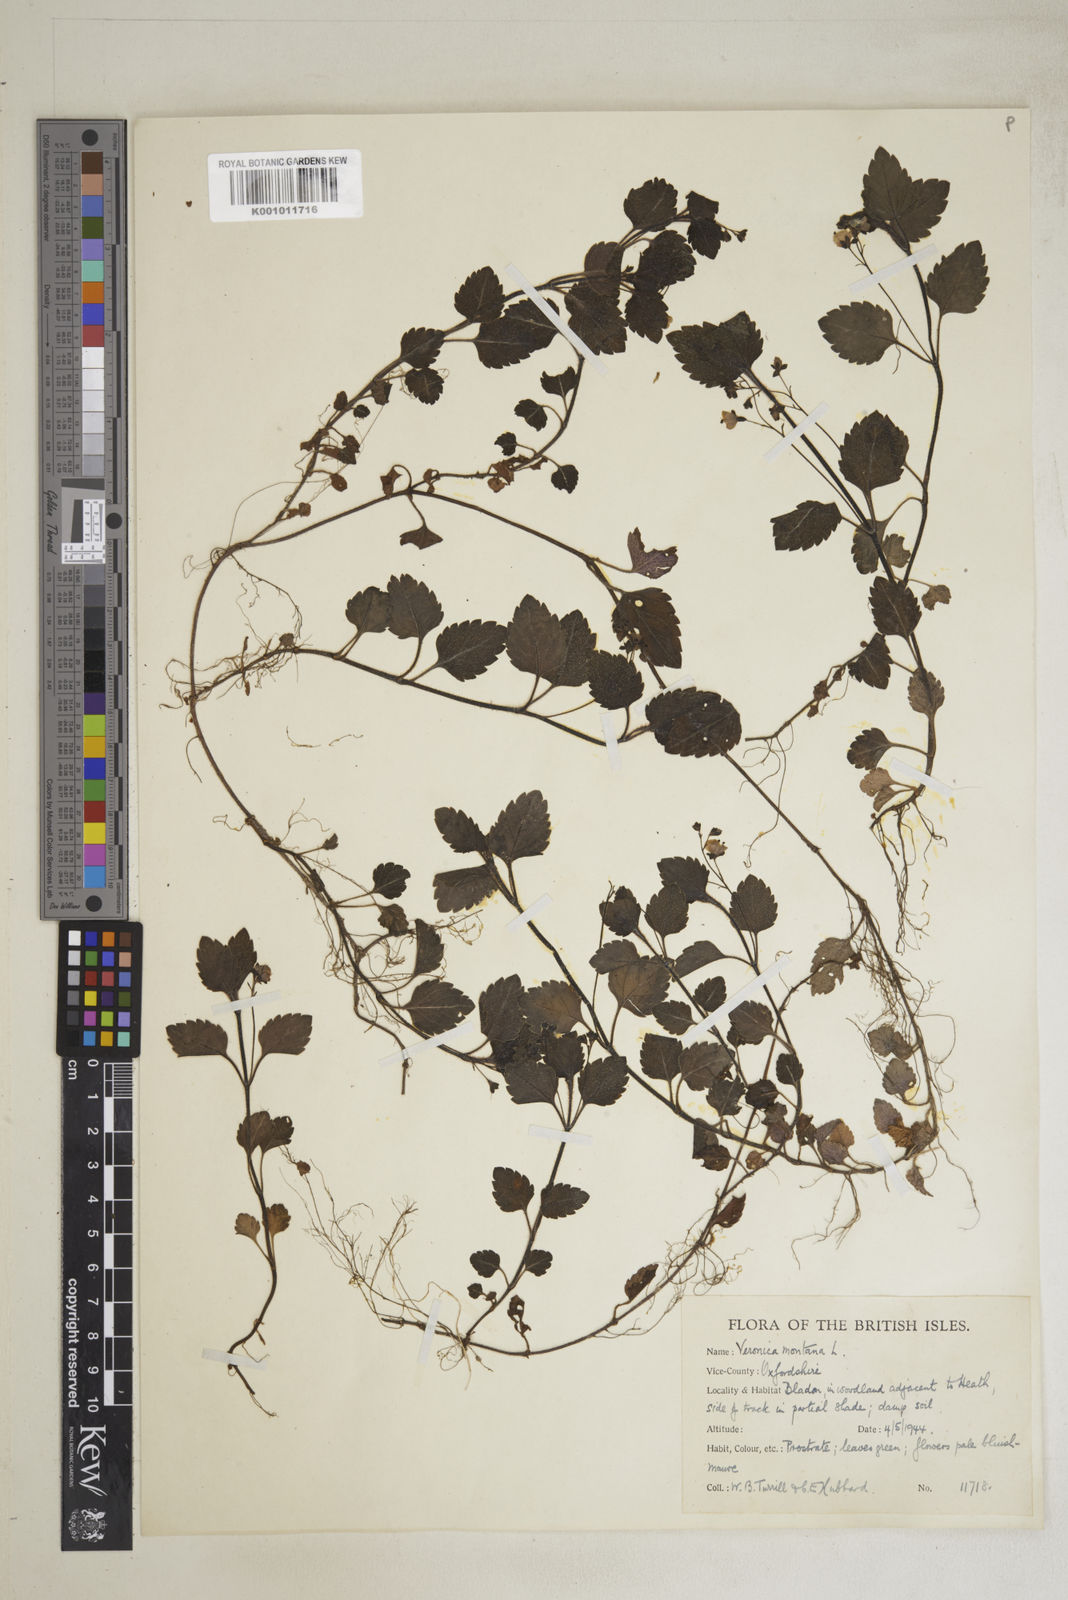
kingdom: Plantae
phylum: Tracheophyta
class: Magnoliopsida
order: Lamiales
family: Plantaginaceae
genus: Veronica
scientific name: Veronica montana
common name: Wood speedwell
